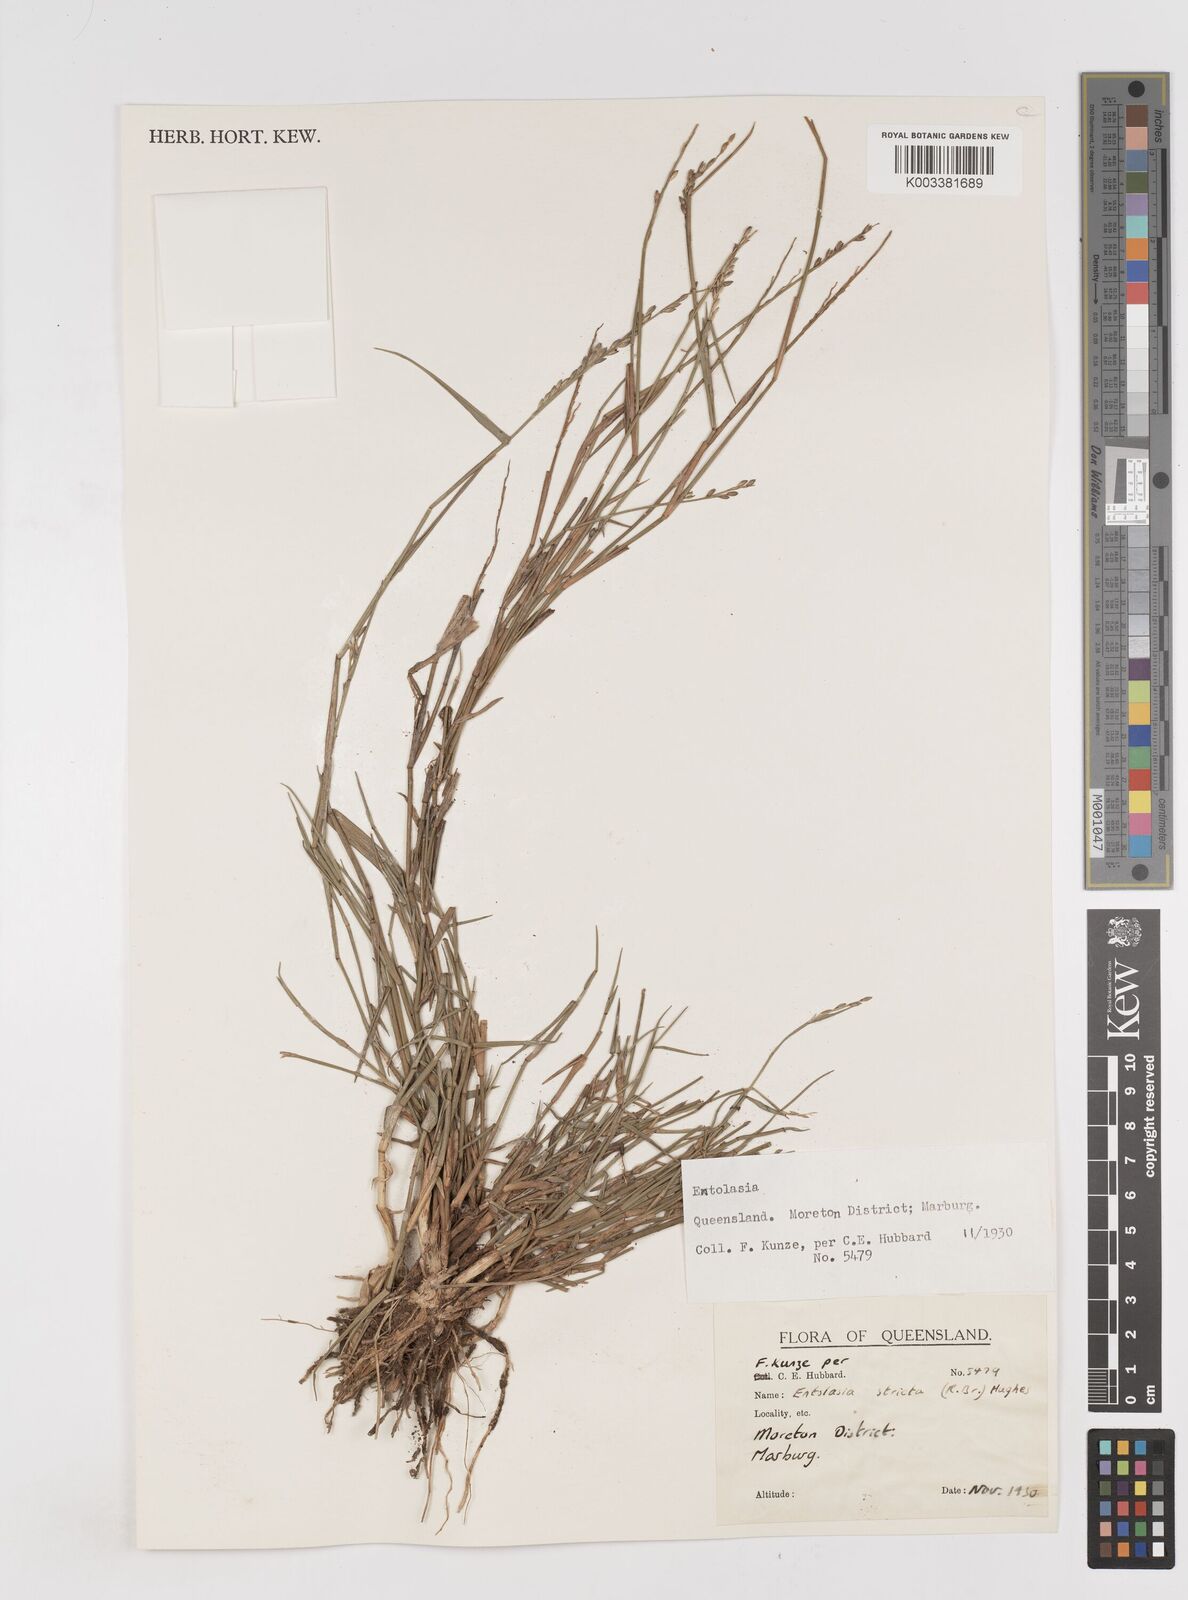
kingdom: Plantae
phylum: Tracheophyta
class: Liliopsida
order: Poales
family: Poaceae
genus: Entolasia
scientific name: Entolasia stricta
